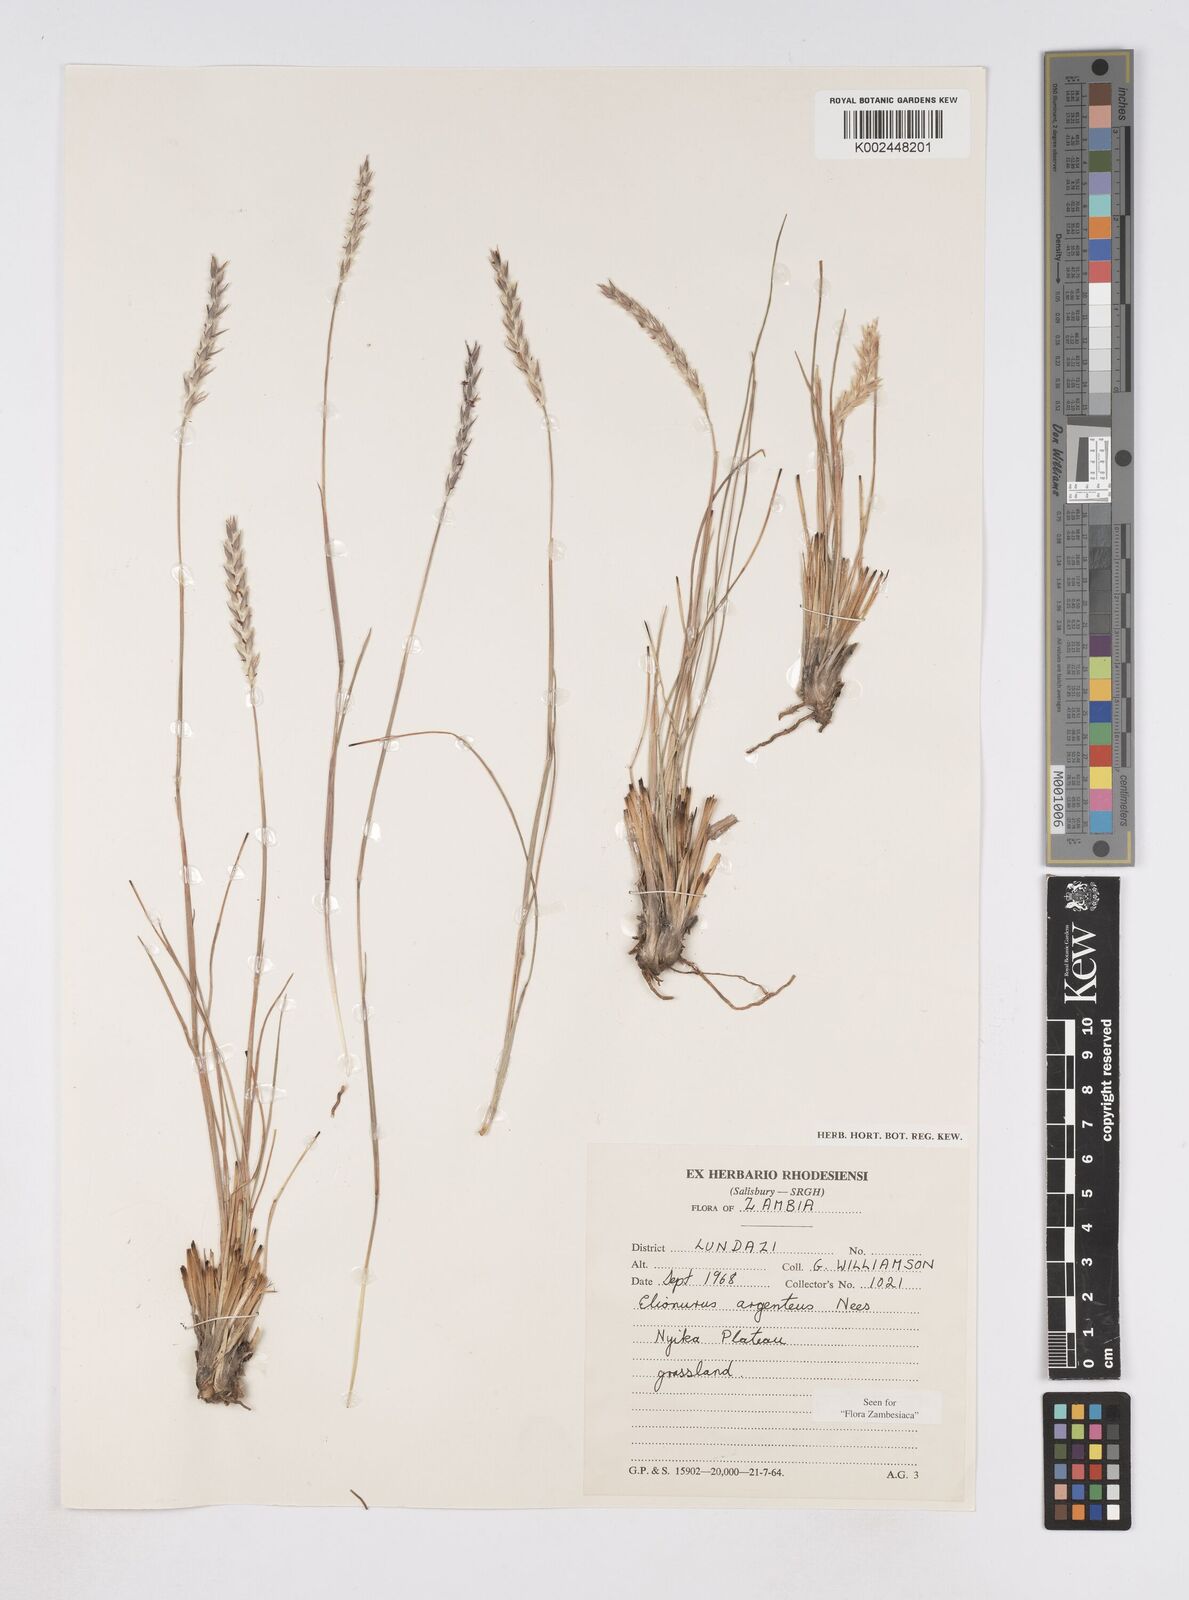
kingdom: Plantae
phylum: Tracheophyta
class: Liliopsida
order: Poales
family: Poaceae
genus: Elionurus
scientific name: Elionurus muticus
